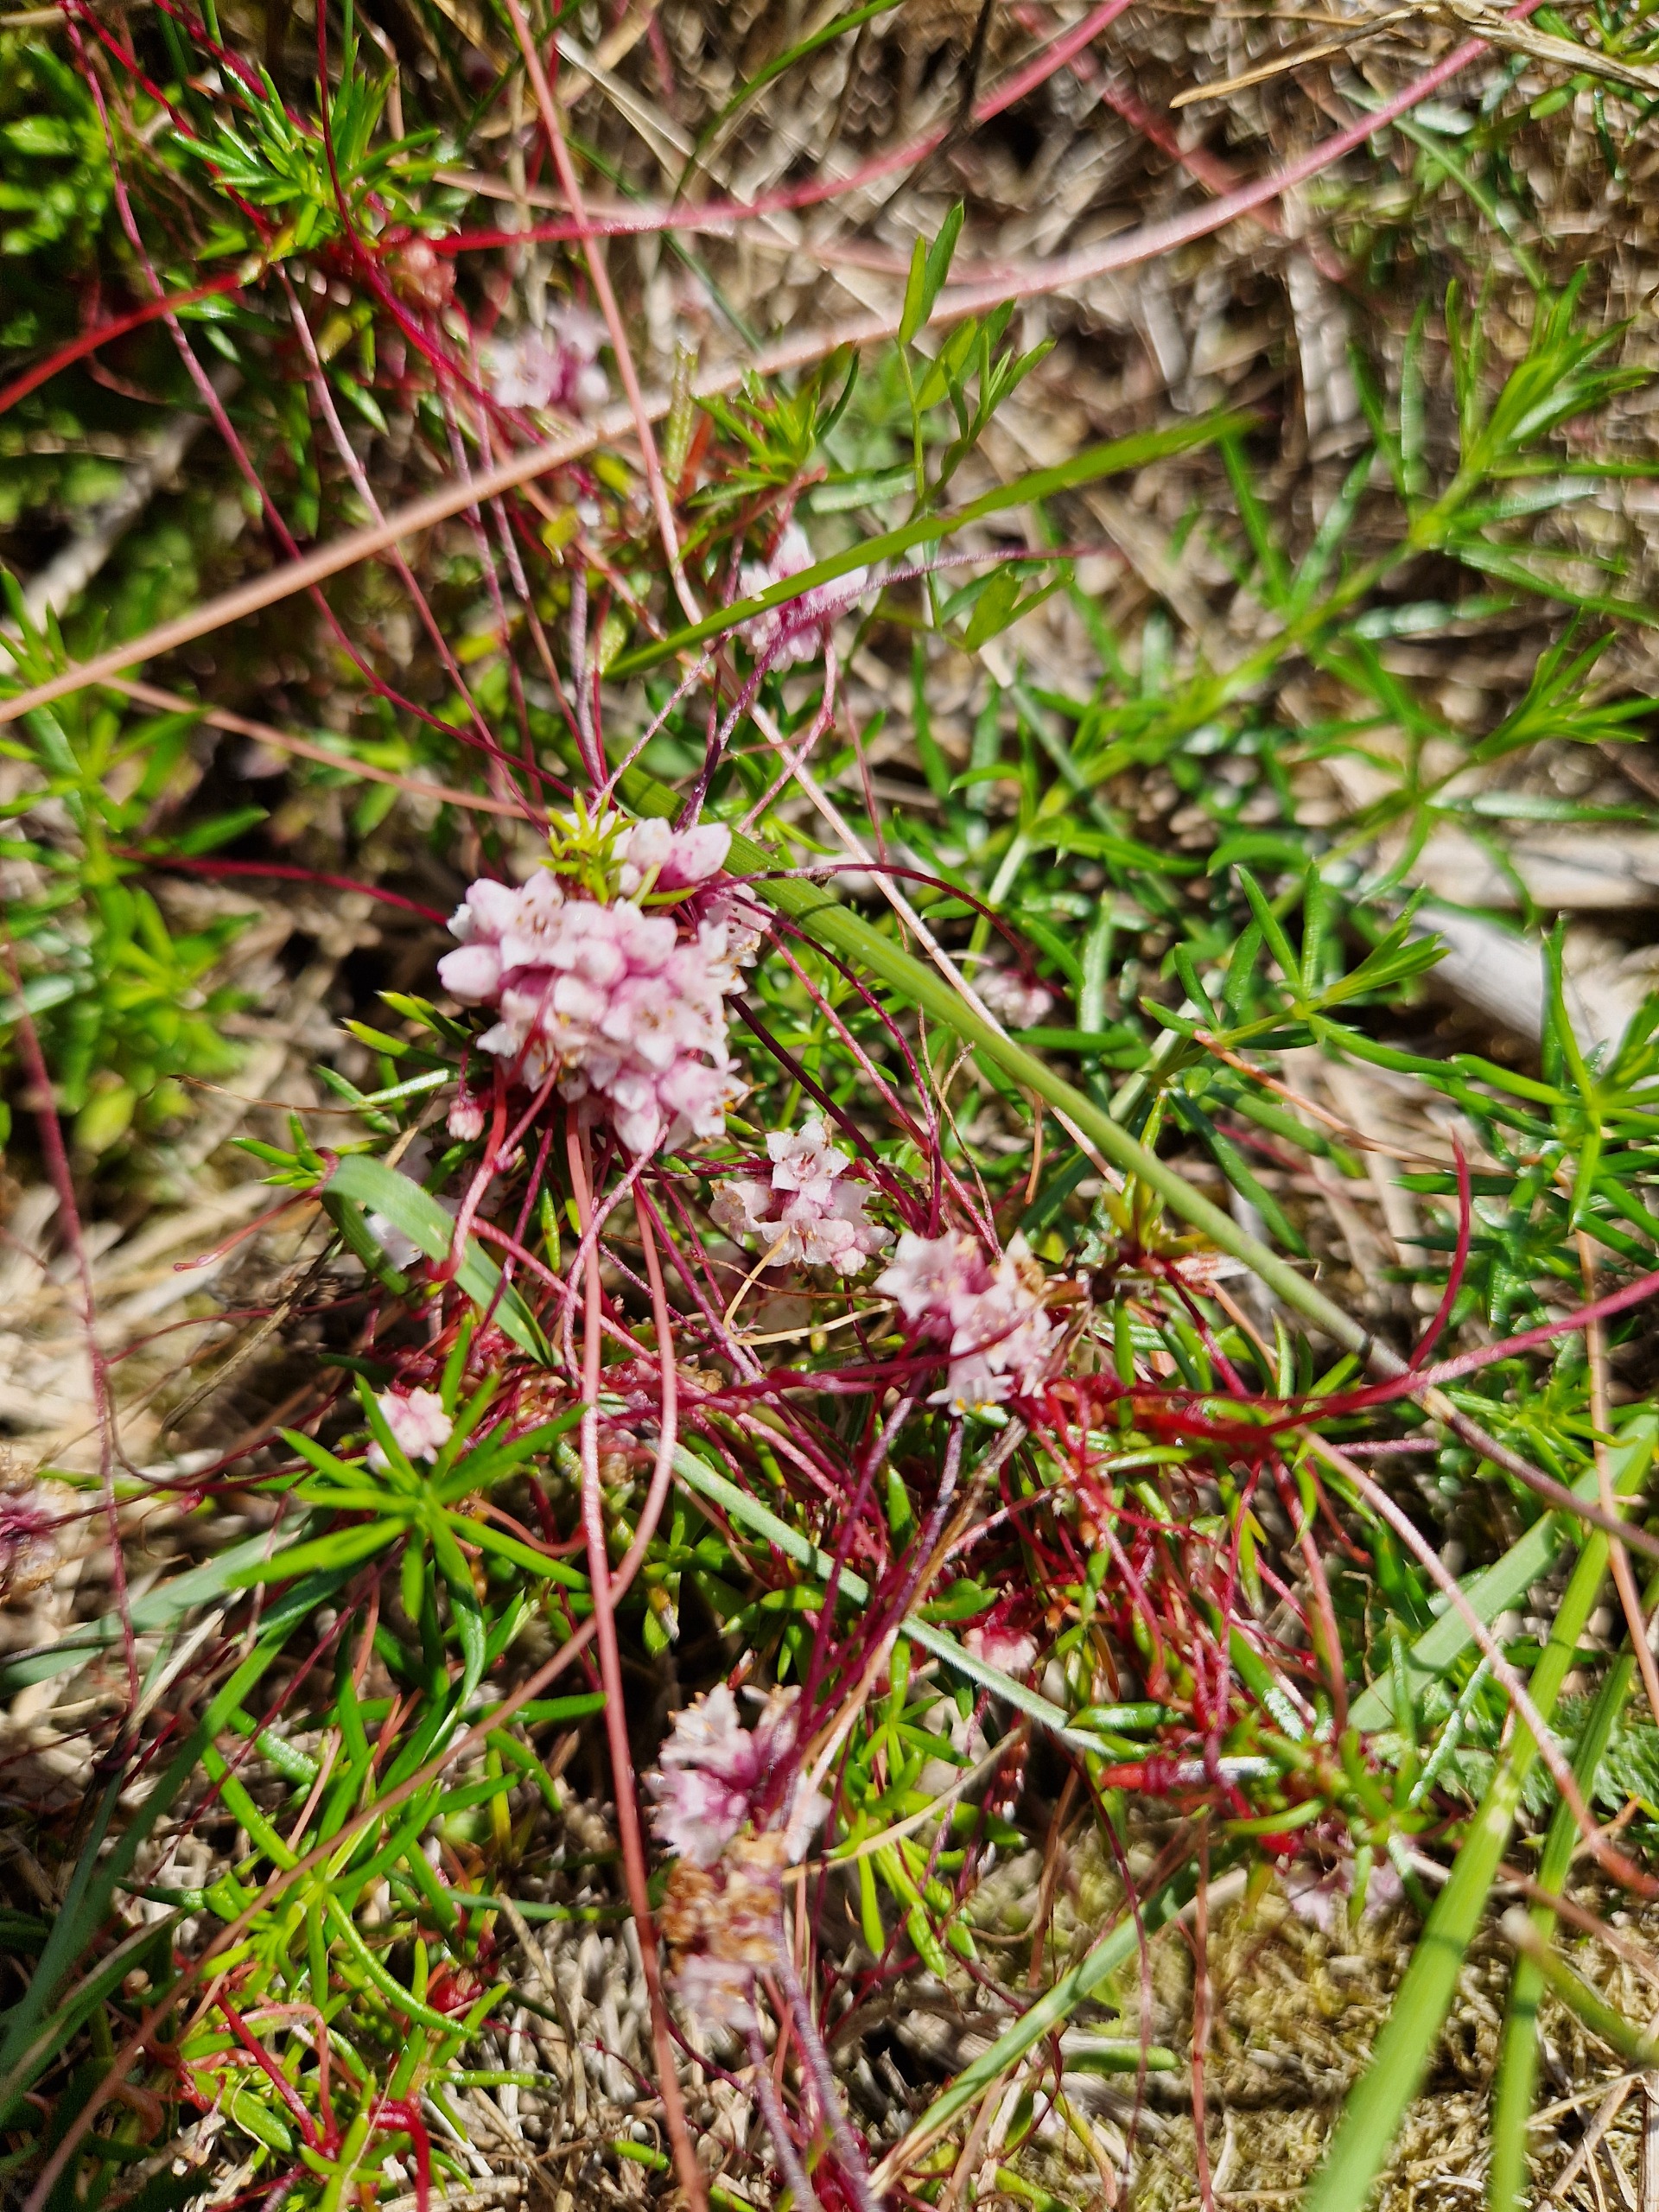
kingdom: Plantae
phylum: Tracheophyta
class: Magnoliopsida
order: Solanales
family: Convolvulaceae
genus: Cuscuta
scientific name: Cuscuta epithymum
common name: Lyng-silke
